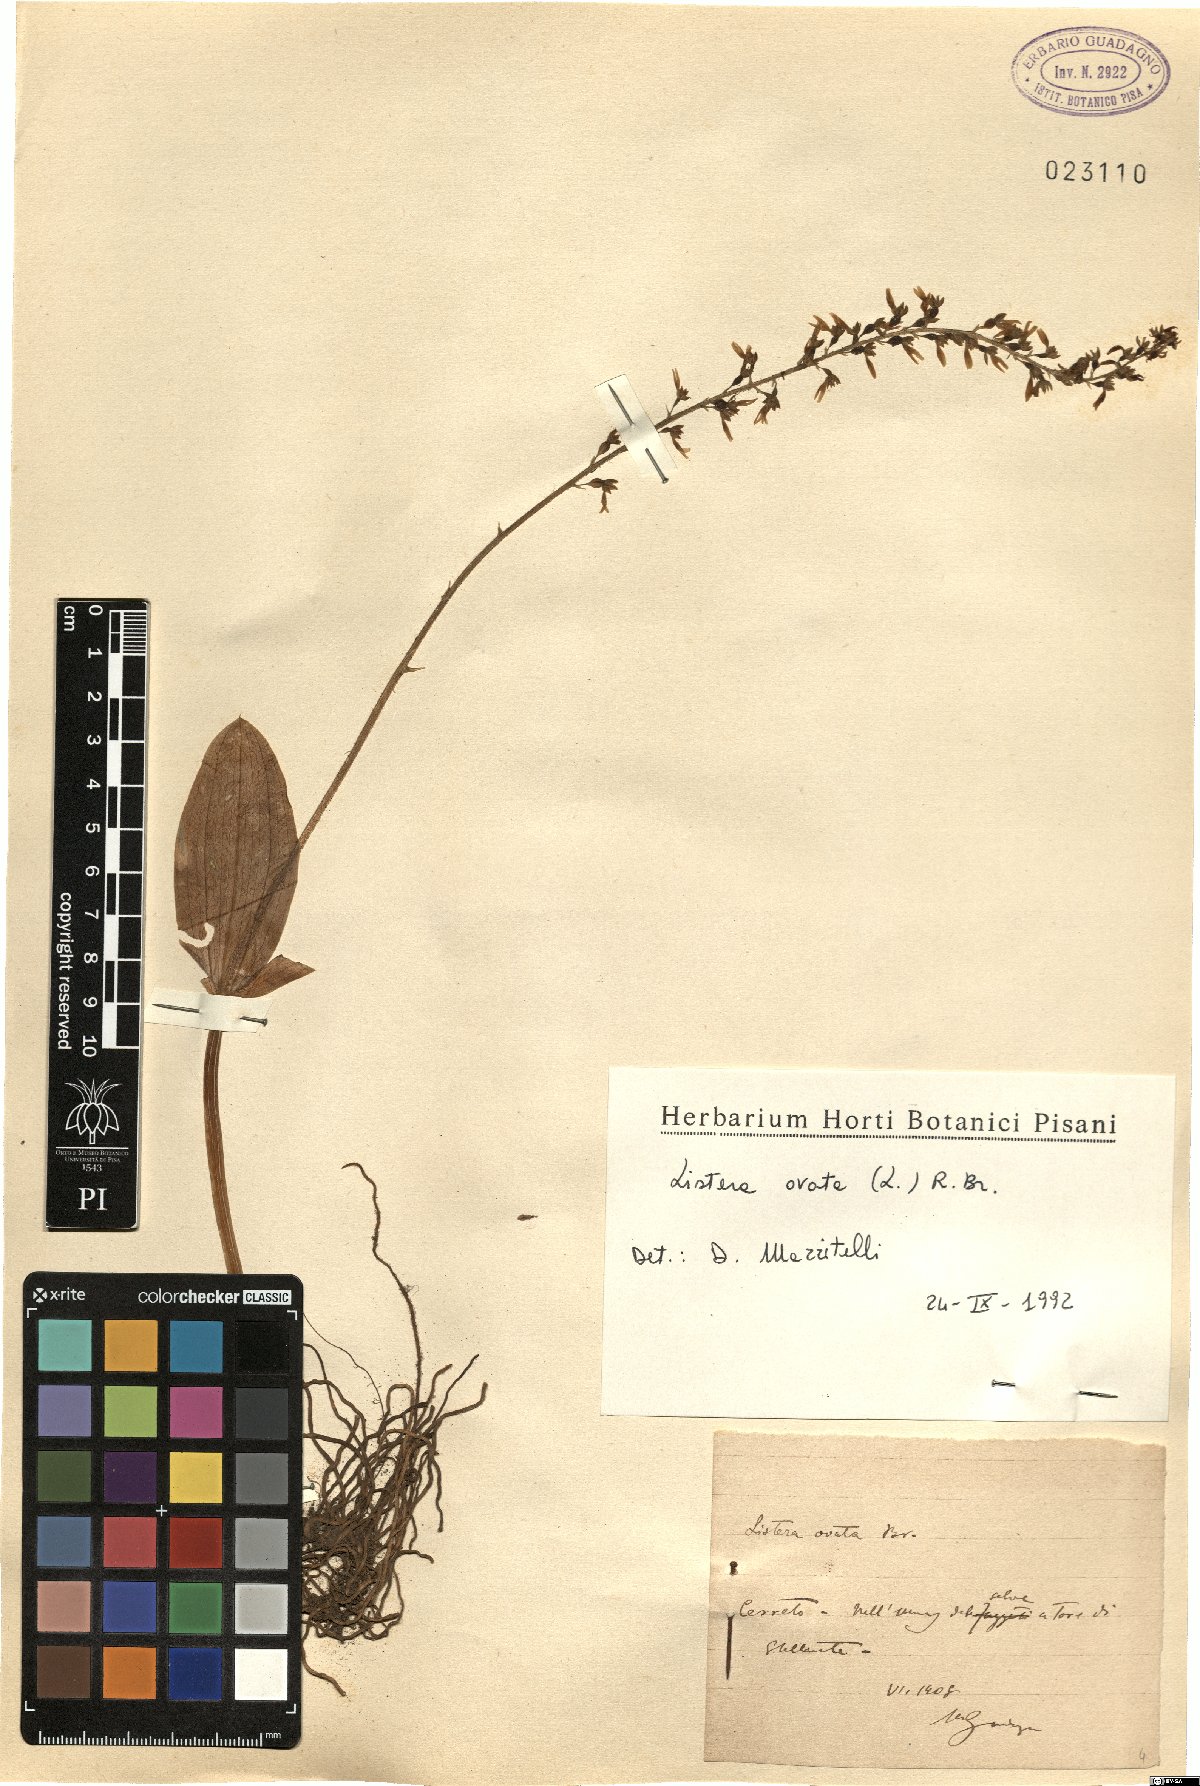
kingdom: Plantae
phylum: Tracheophyta
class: Liliopsida
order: Asparagales
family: Orchidaceae
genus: Neottia
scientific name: Neottia ovata
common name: Common twayblade
